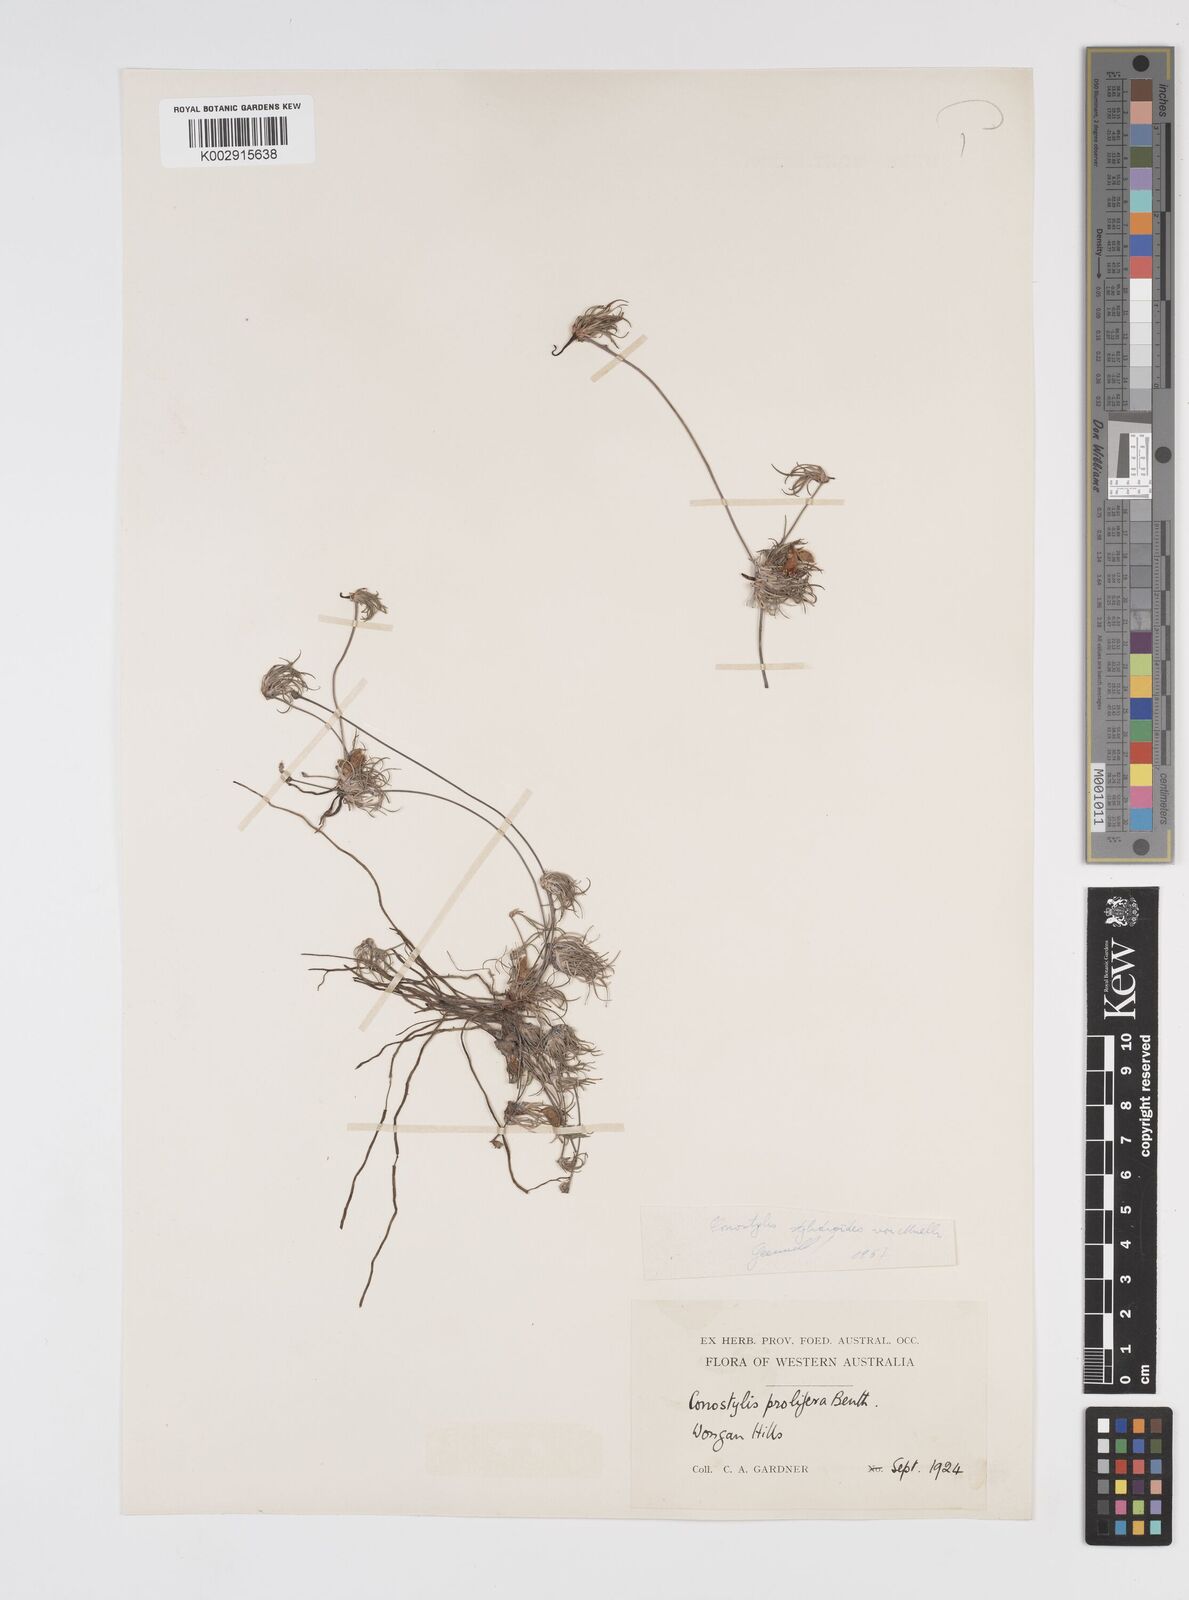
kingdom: Plantae
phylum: Tracheophyta
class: Liliopsida
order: Commelinales
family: Haemodoraceae
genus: Conostylis
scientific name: Conostylis stylidioides
